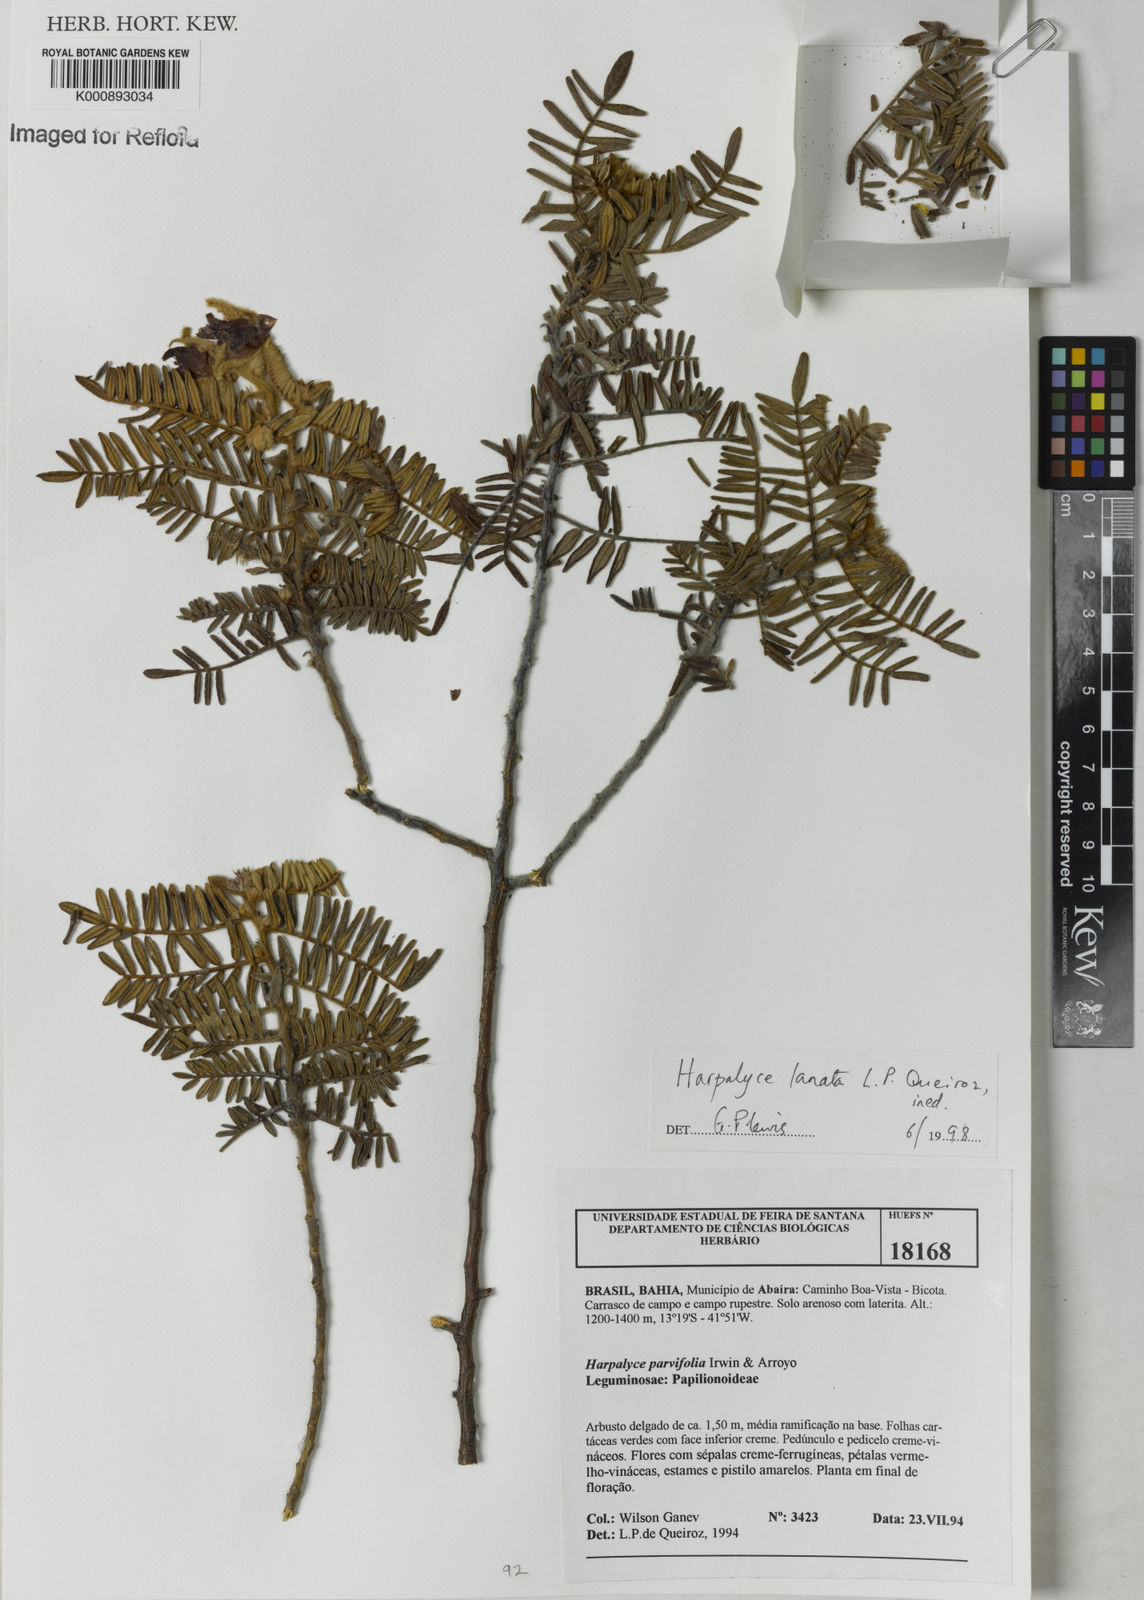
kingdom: Plantae
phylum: Tracheophyta
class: Magnoliopsida
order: Fabales
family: Fabaceae
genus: Harpalyce
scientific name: Harpalyce lanata
